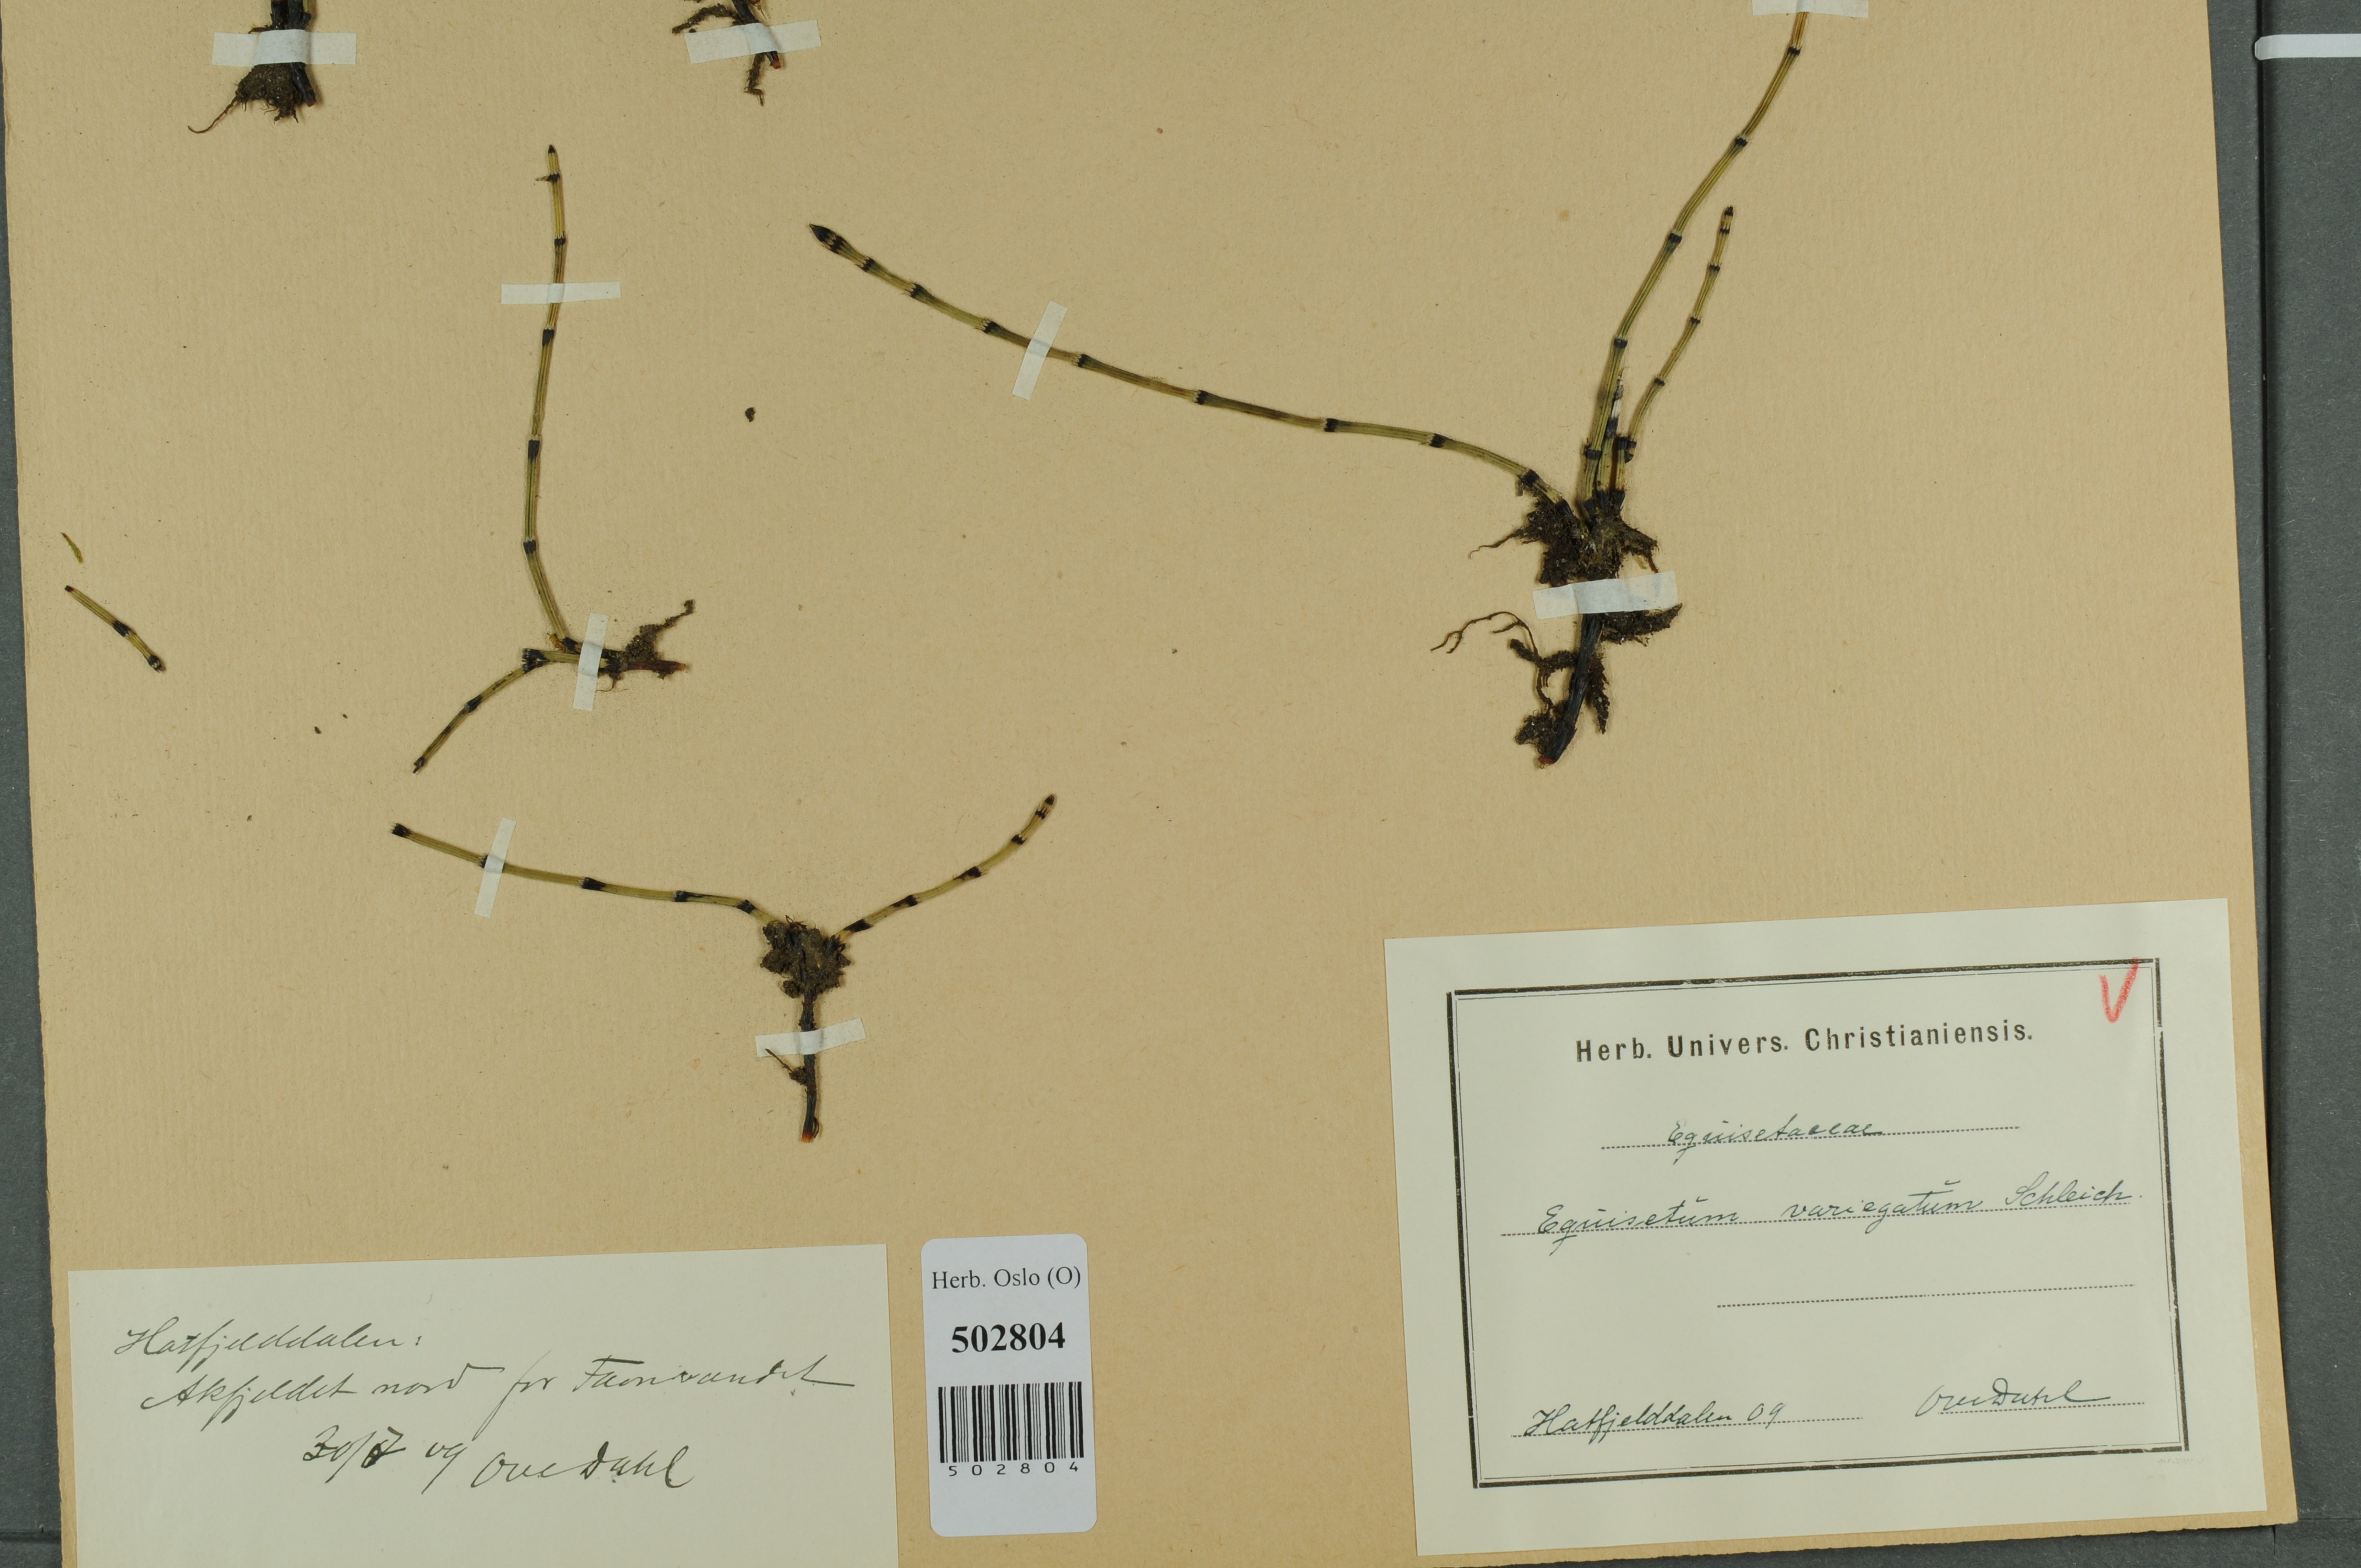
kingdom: Plantae
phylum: Tracheophyta
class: Polypodiopsida
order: Equisetales
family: Equisetaceae
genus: Equisetum
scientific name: Equisetum variegatum
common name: Variegated horsetail
